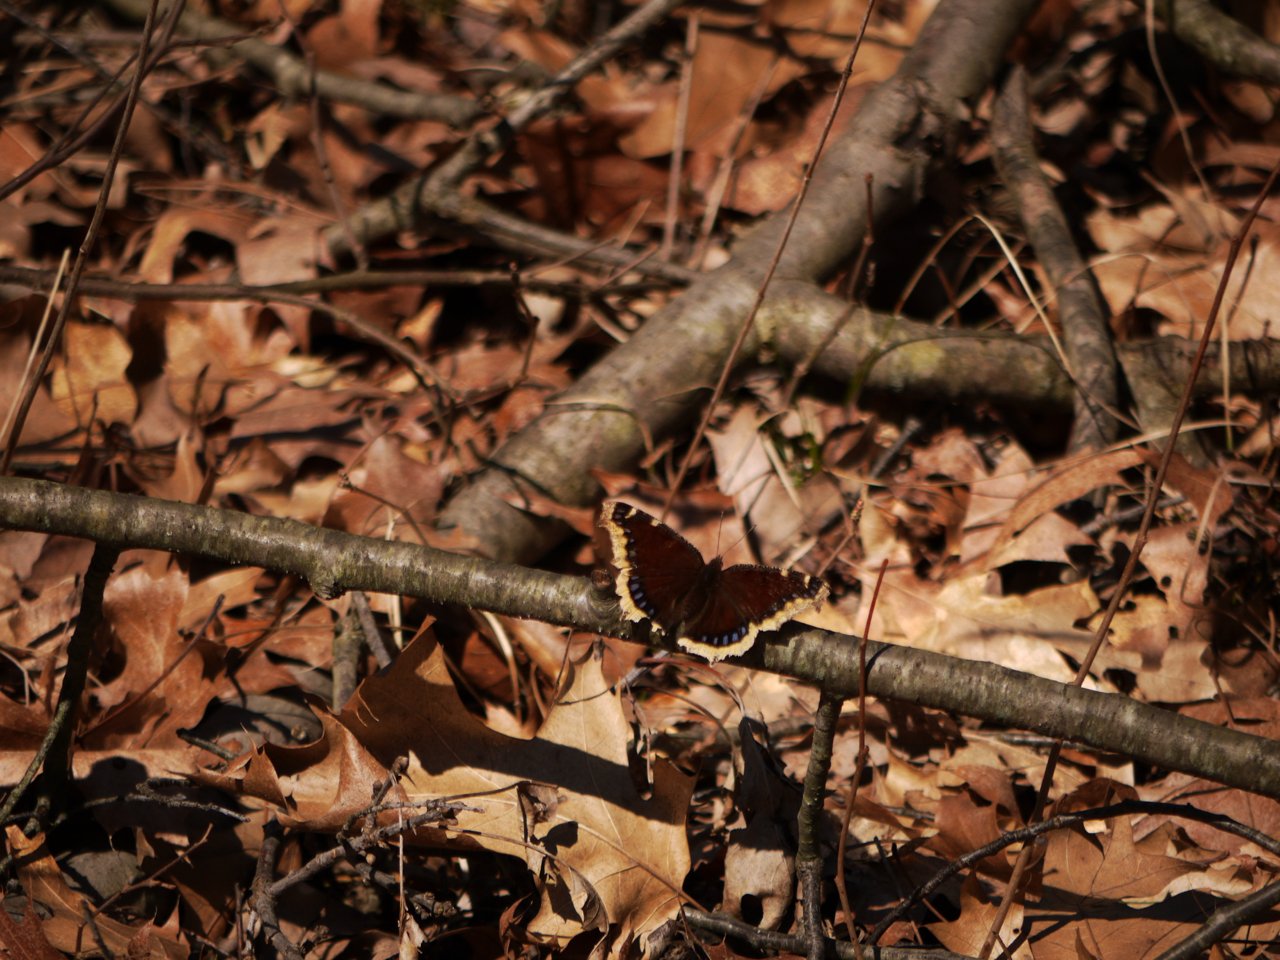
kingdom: Animalia
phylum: Arthropoda
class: Insecta
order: Lepidoptera
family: Nymphalidae
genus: Nymphalis
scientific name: Nymphalis antiopa
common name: Mourning Cloak
